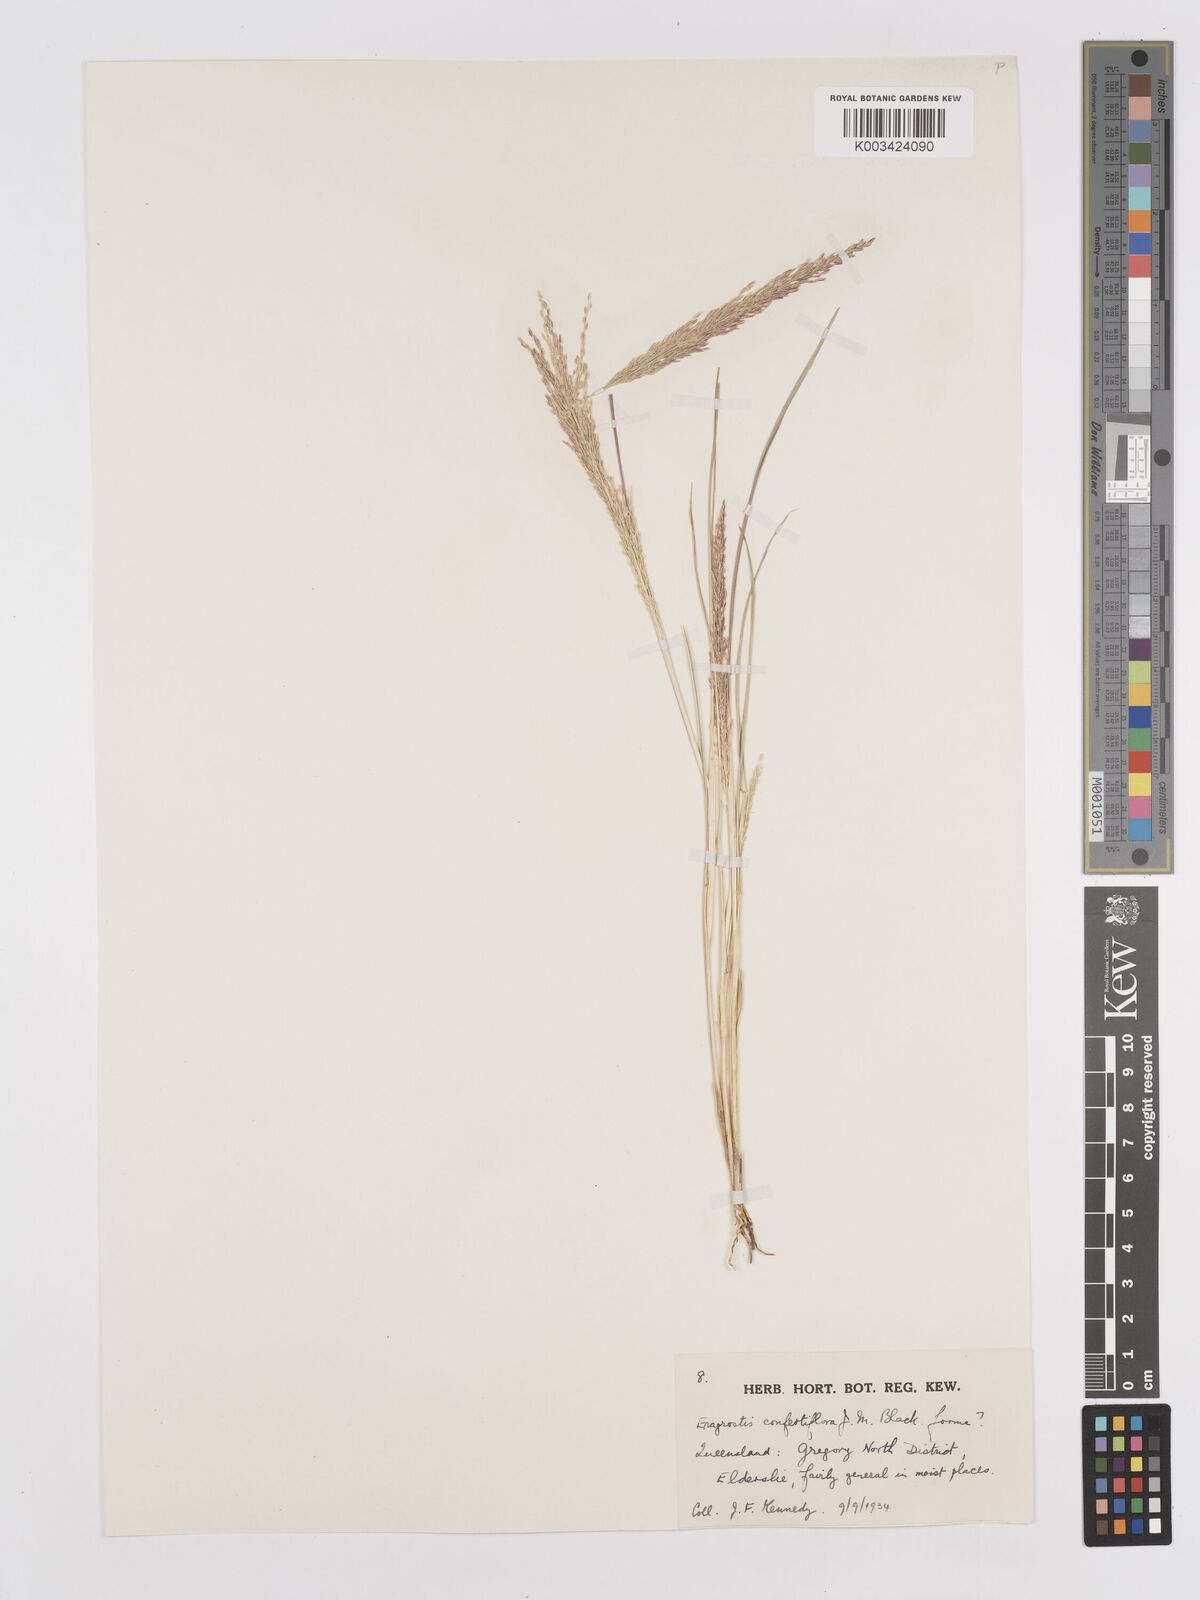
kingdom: Plantae
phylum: Tracheophyta
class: Liliopsida
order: Poales
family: Poaceae
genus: Eragrostis
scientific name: Eragrostis confertiflora
